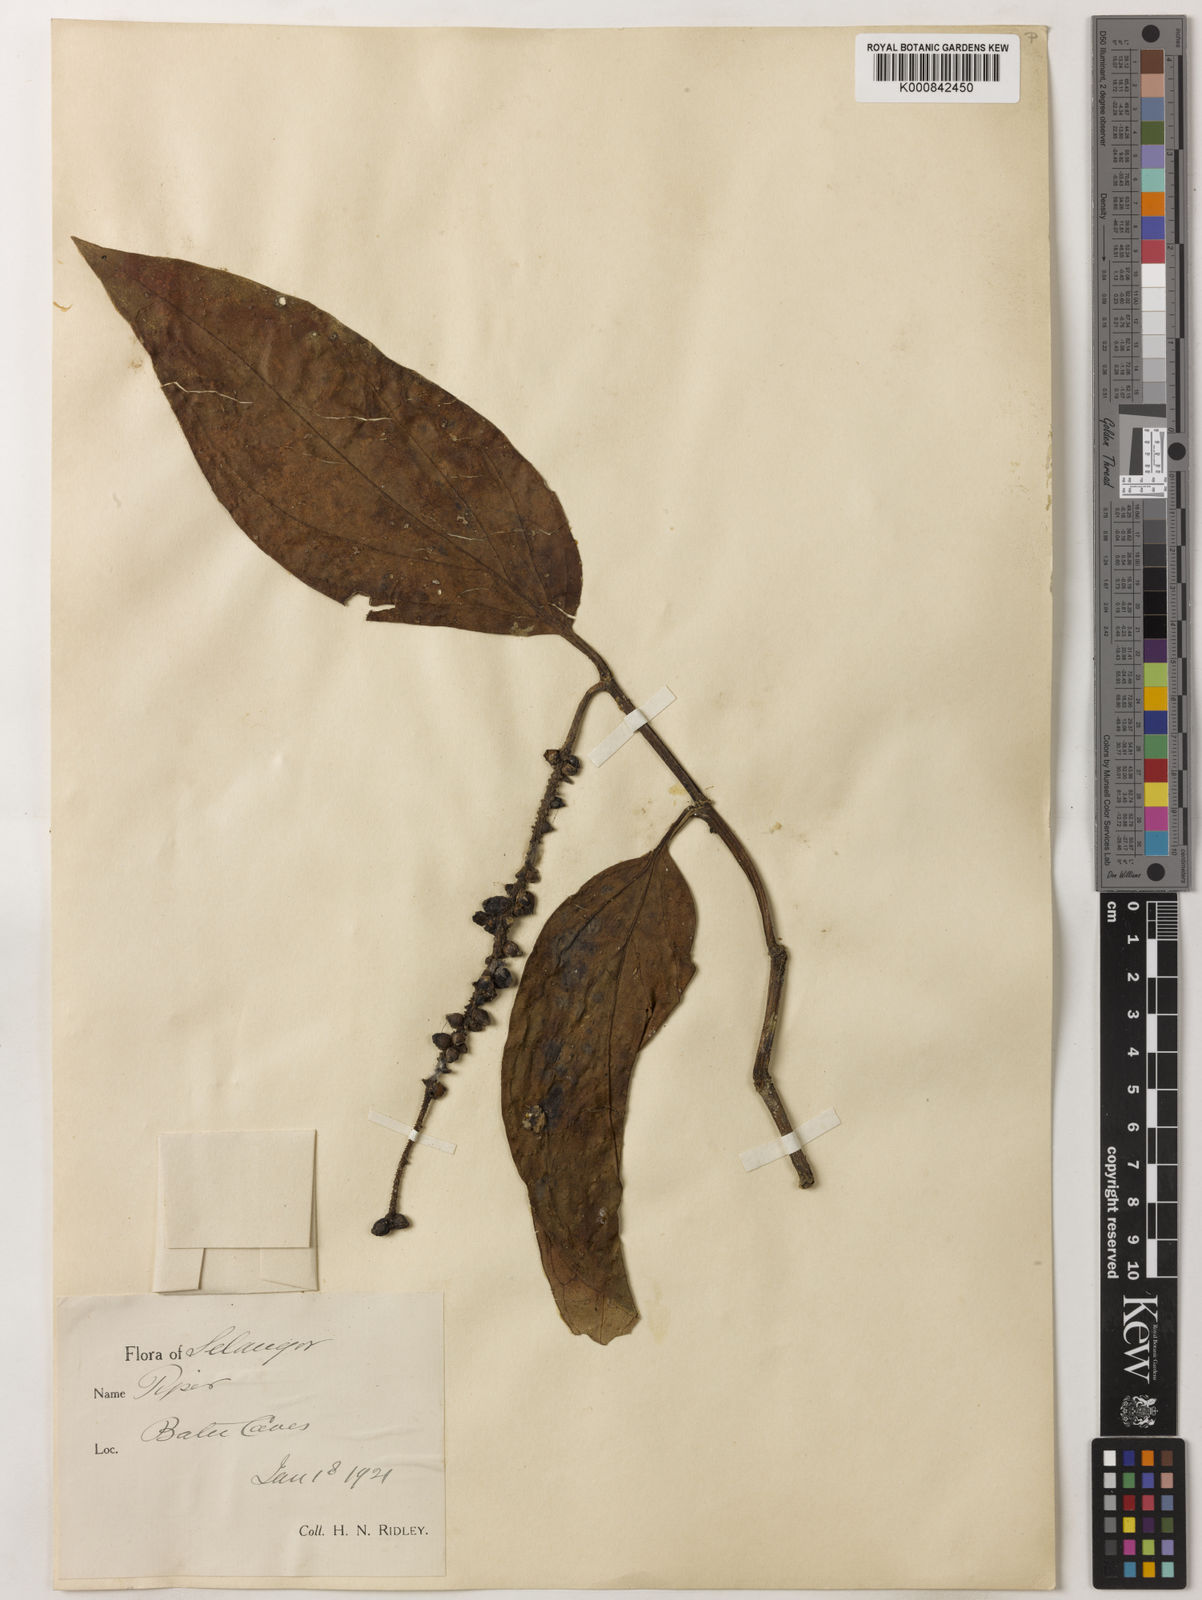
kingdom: Plantae
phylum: Tracheophyta
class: Magnoliopsida
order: Piperales
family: Piperaceae
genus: Piper
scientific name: Piper quinqueangulatum
